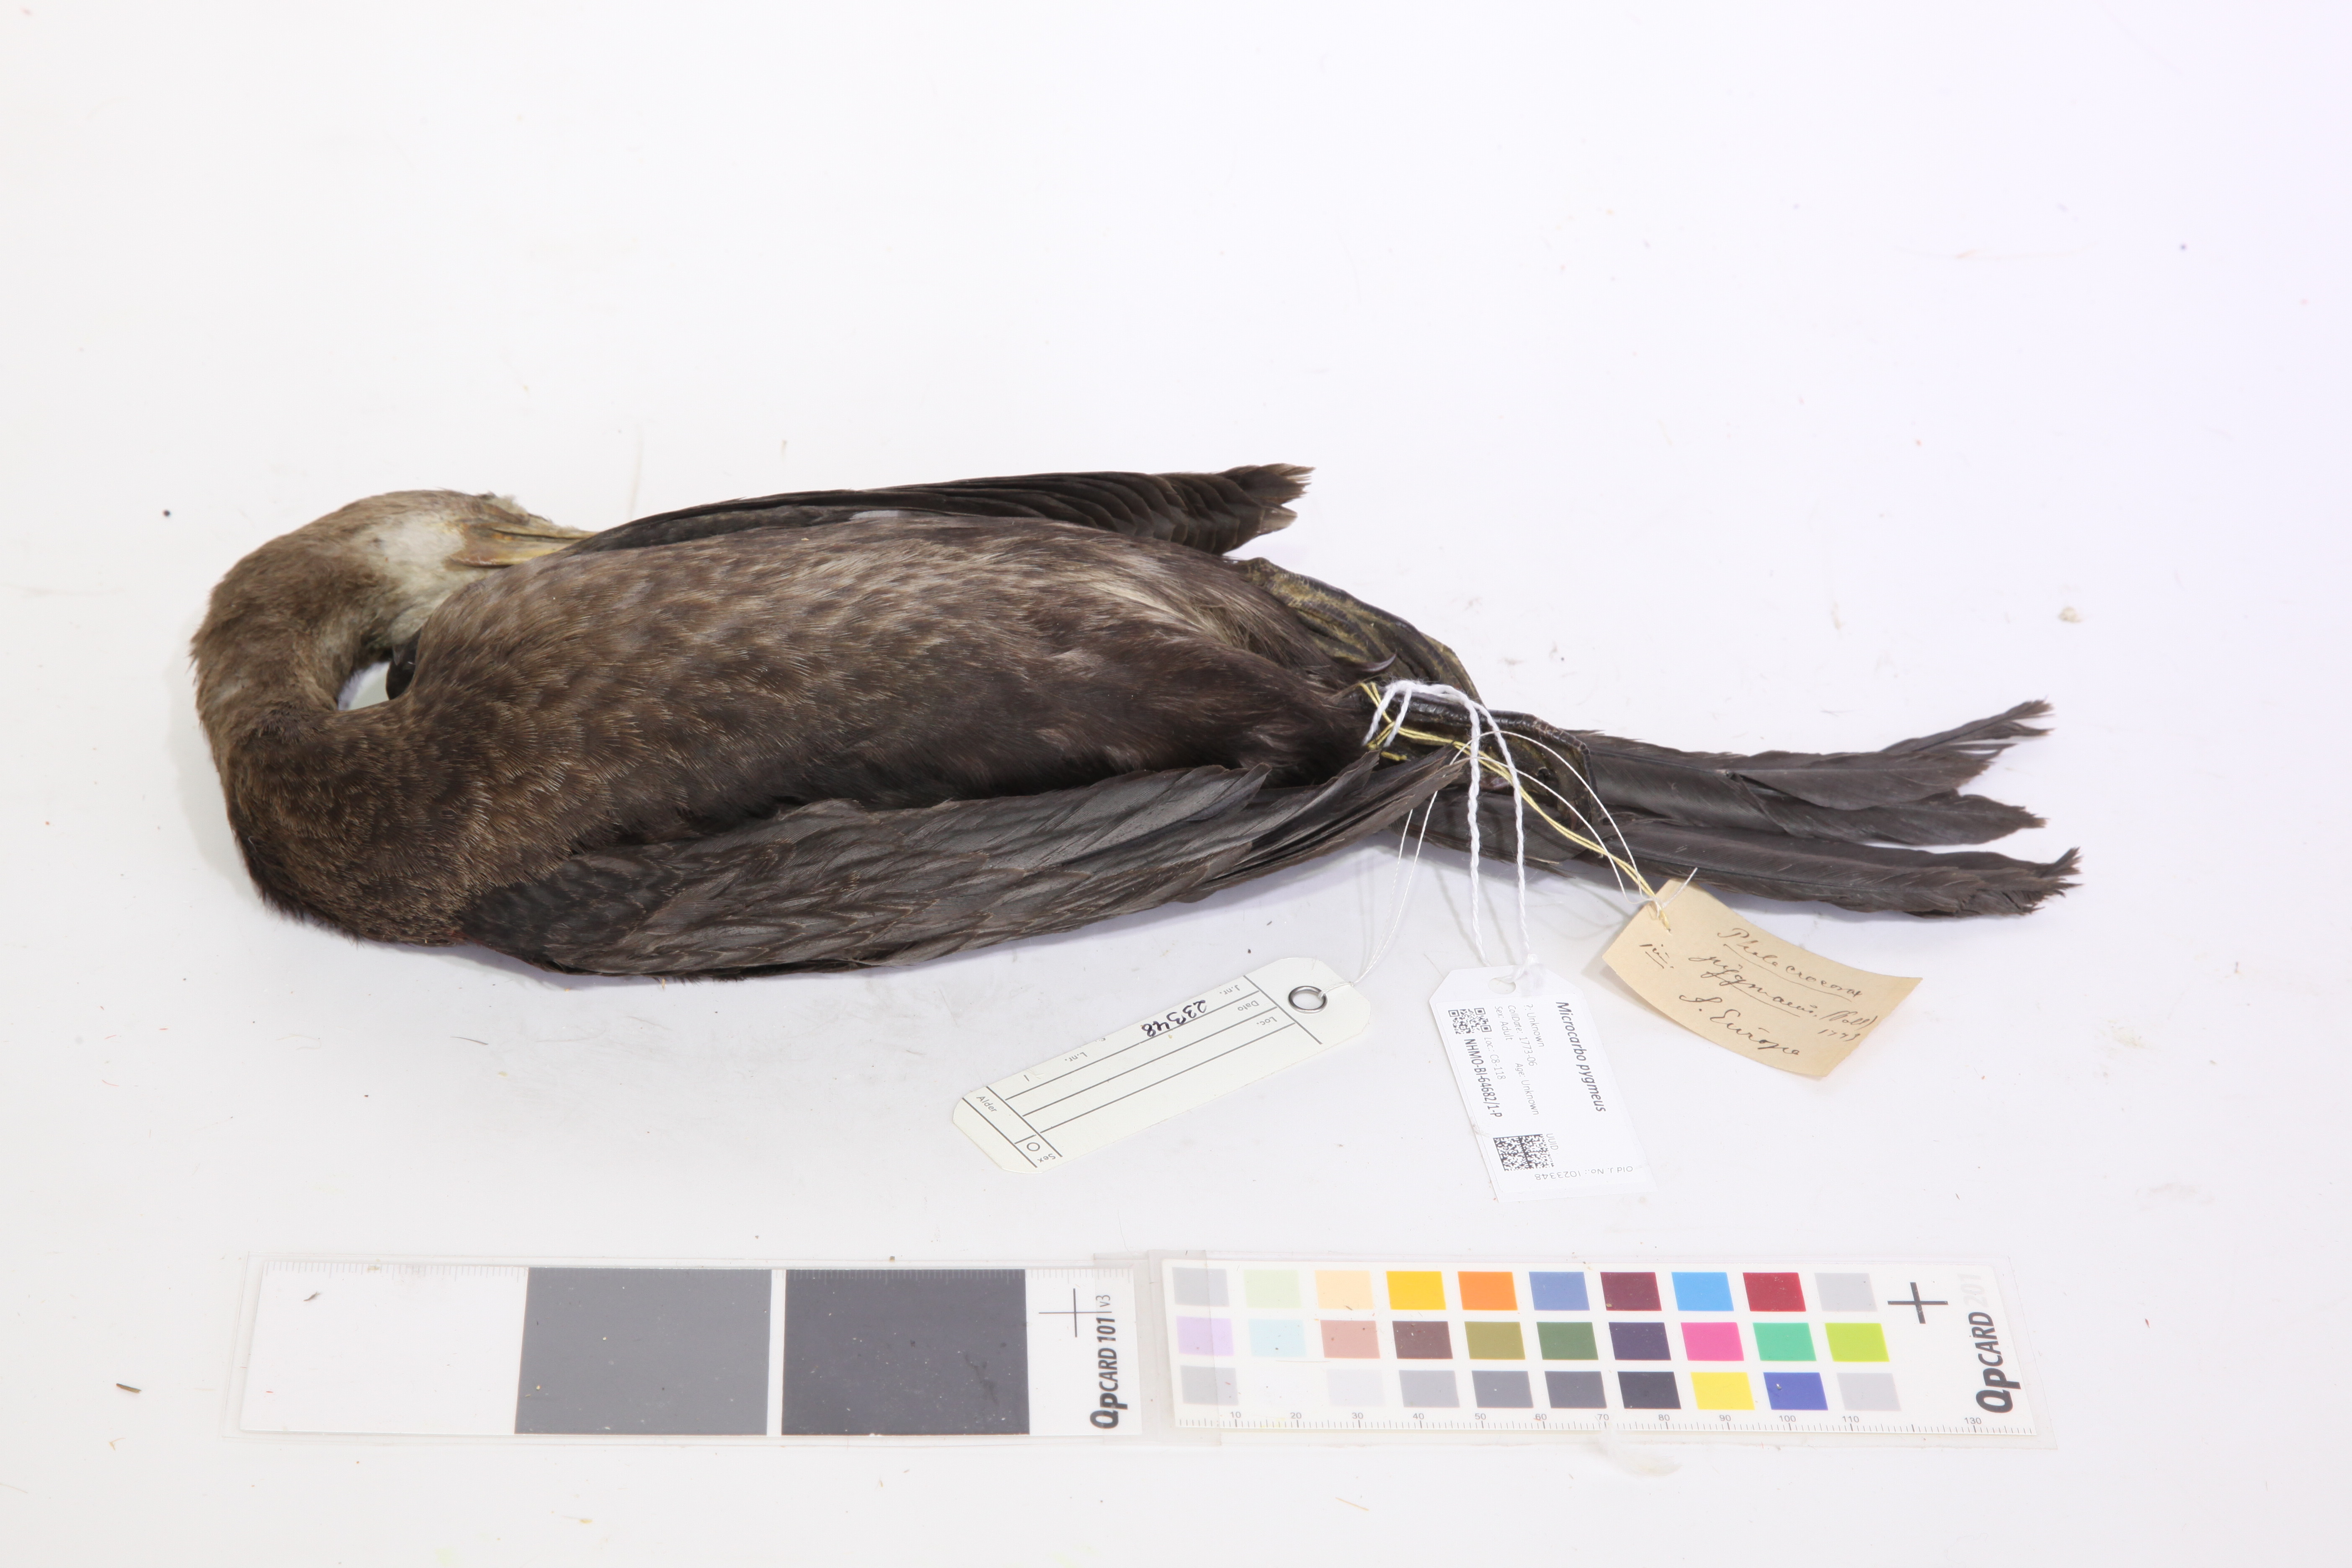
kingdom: Animalia
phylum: Chordata
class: Aves
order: Suliformes
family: Phalacrocoracidae
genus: Microcarbo
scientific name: Microcarbo pygmaeus
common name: Pygmy cormorant
